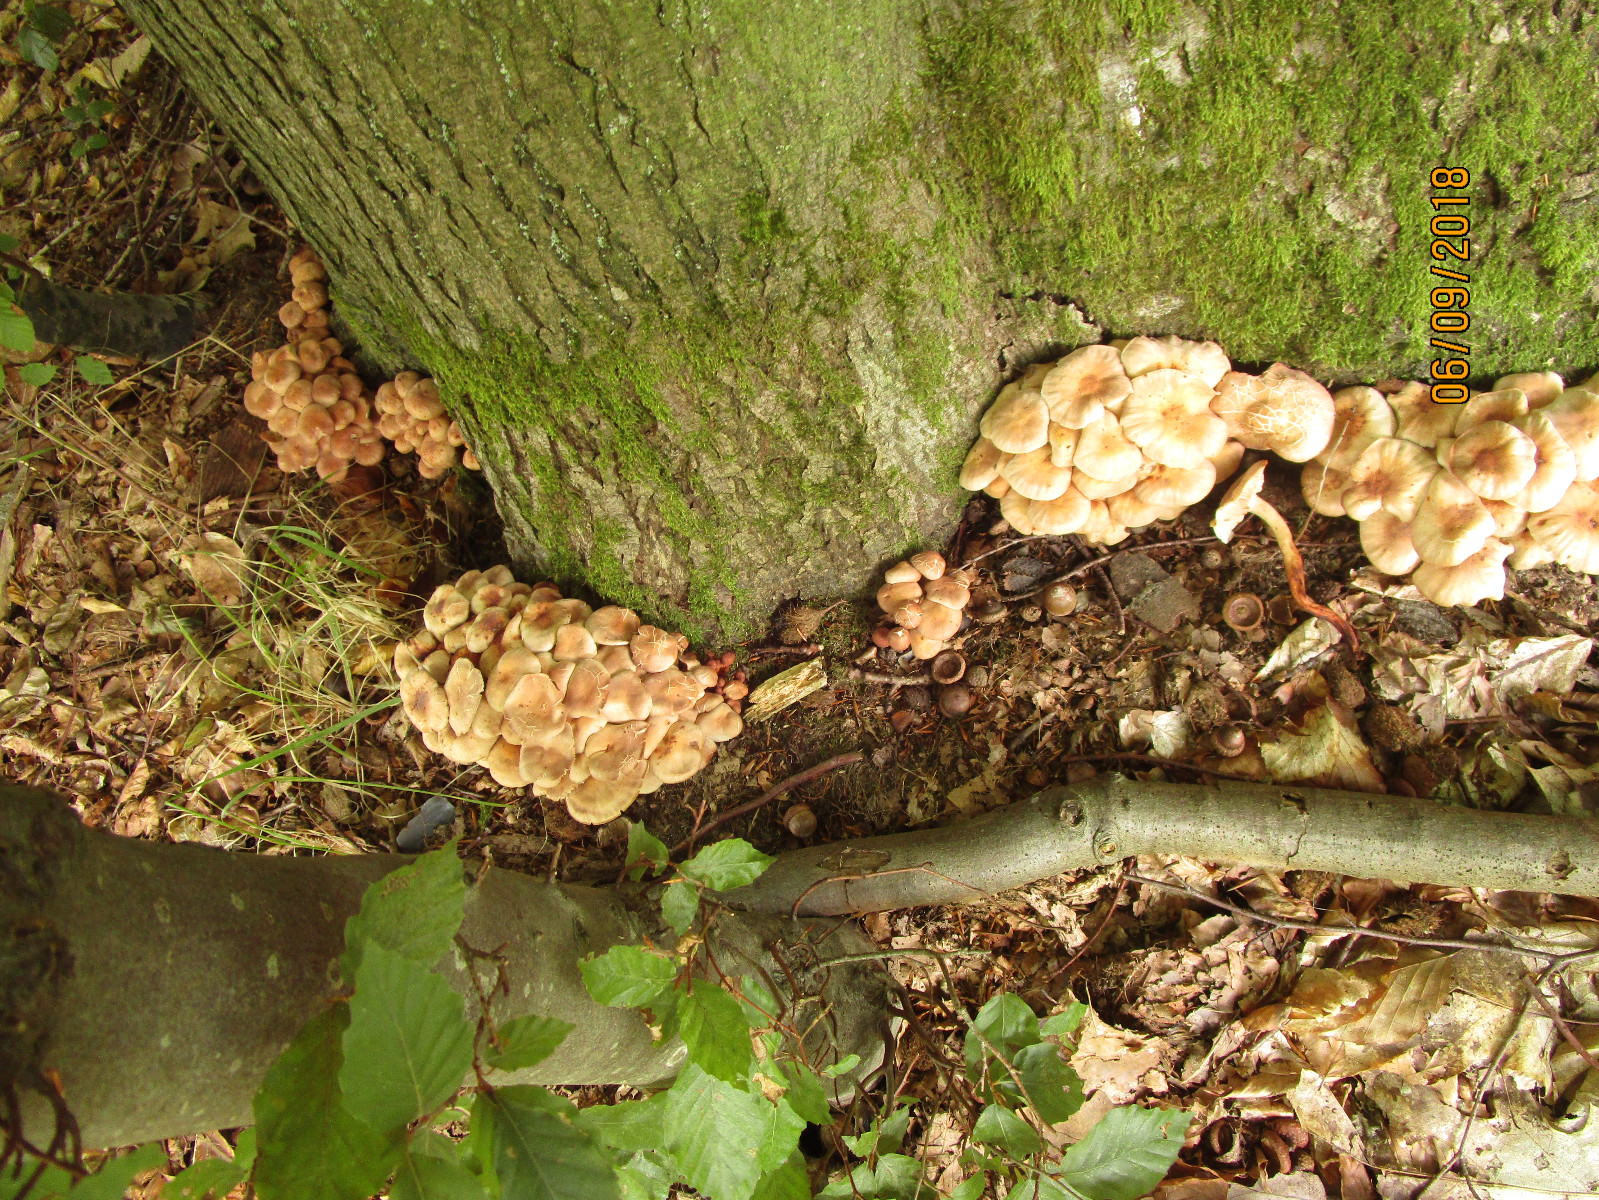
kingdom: Fungi
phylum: Basidiomycota
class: Agaricomycetes
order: Agaricales
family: Omphalotaceae
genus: Gymnopus
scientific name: Gymnopus fusipes
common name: tenstokket fladhat
